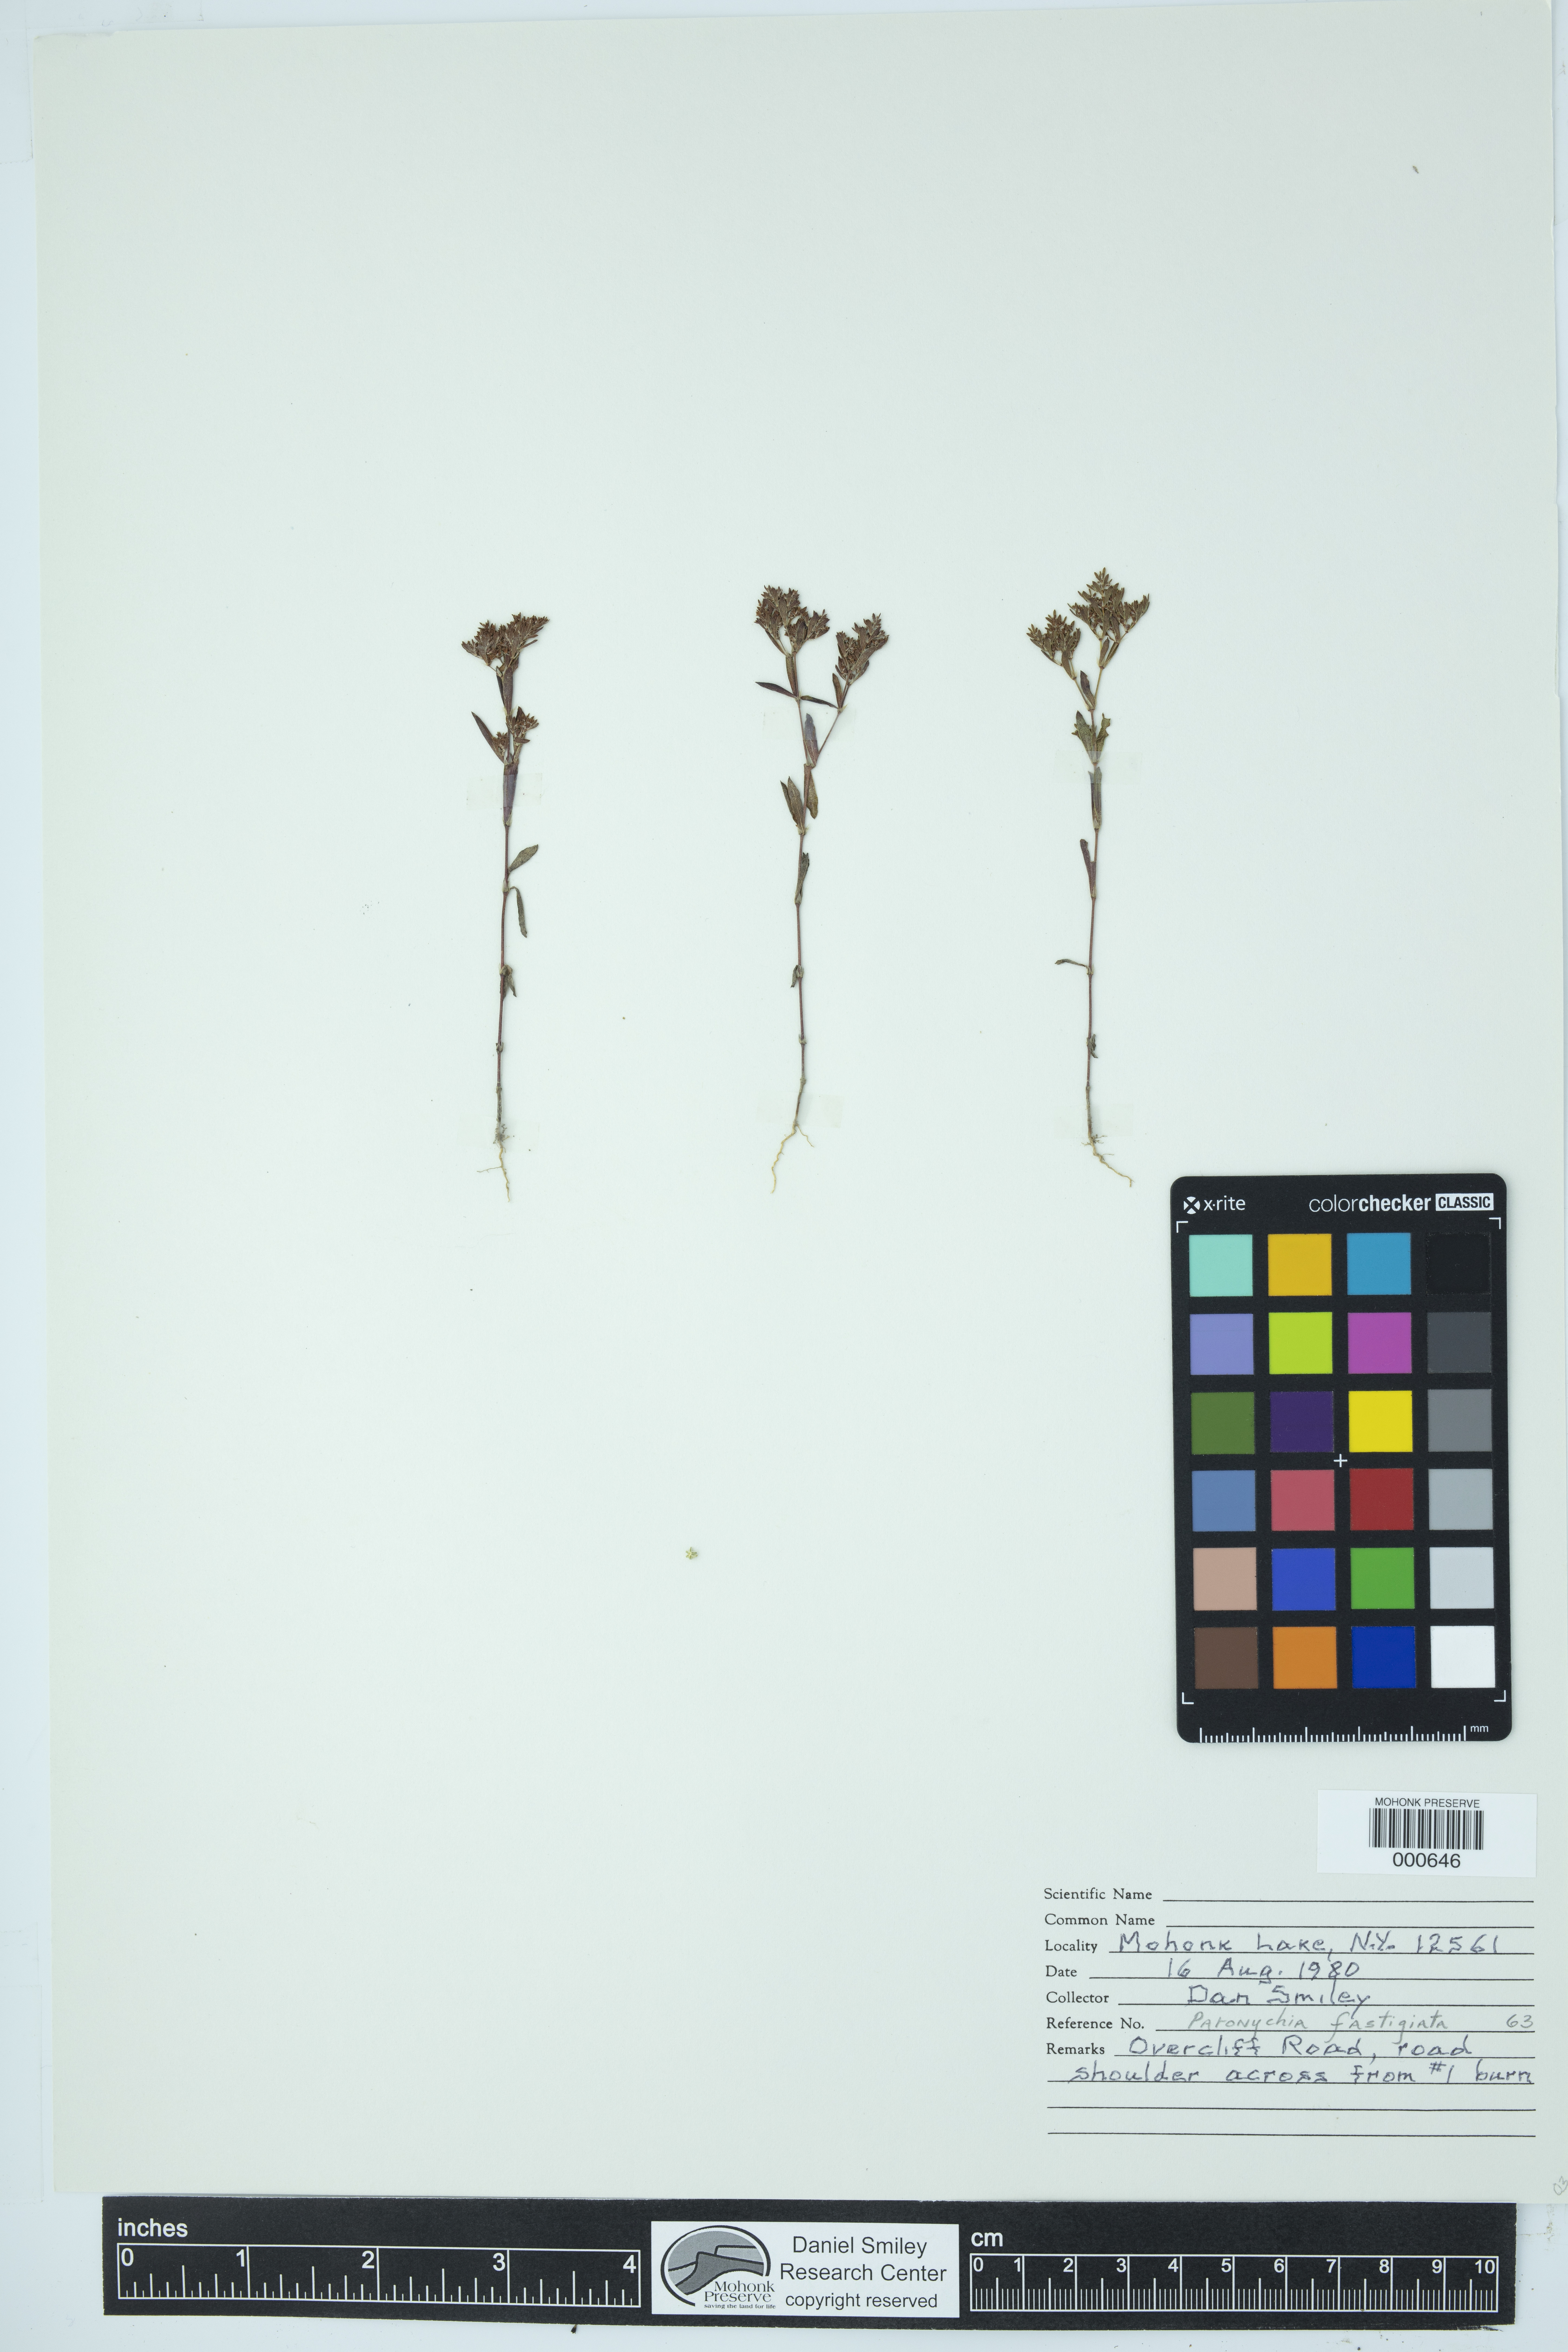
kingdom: Plantae
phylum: Tracheophyta
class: Magnoliopsida
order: Caryophyllales
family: Caryophyllaceae
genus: Paronychia
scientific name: Paronychia fastigiata
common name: Branching forked whitlow-wort
